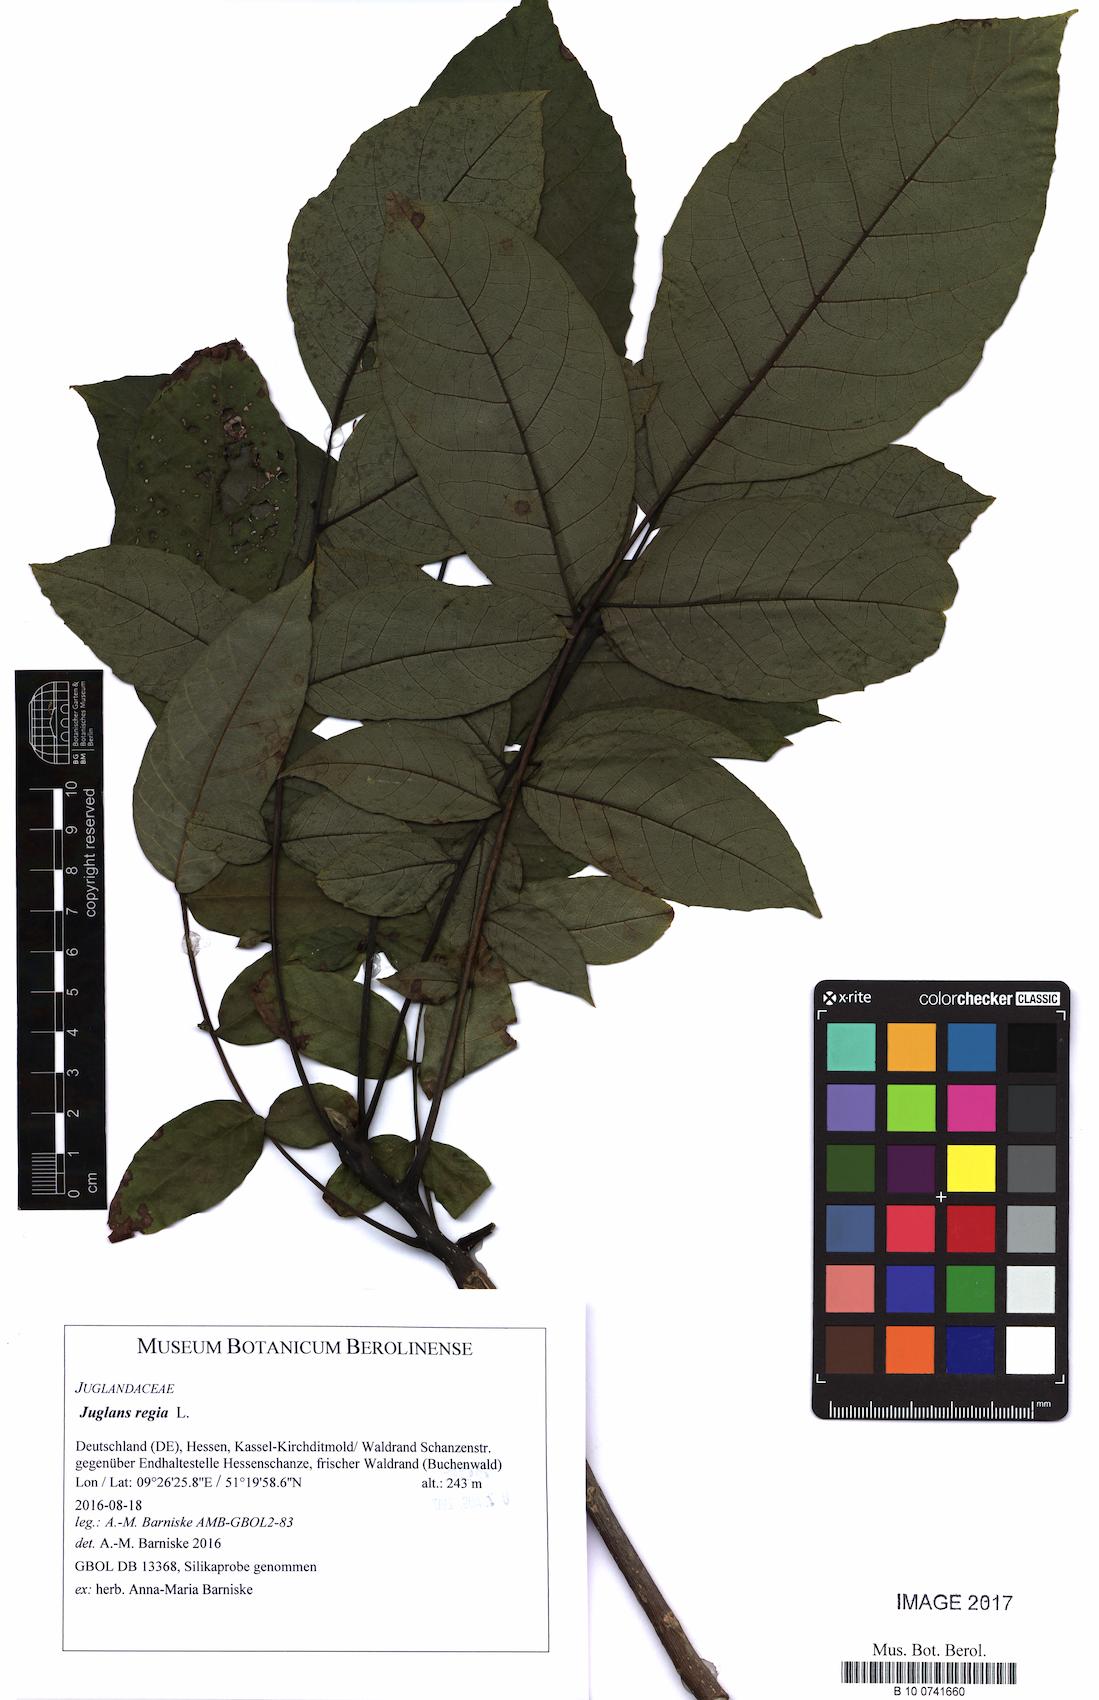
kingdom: Plantae
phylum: Tracheophyta
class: Magnoliopsida
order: Fagales
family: Juglandaceae
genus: Juglans
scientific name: Juglans regia
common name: Walnut
